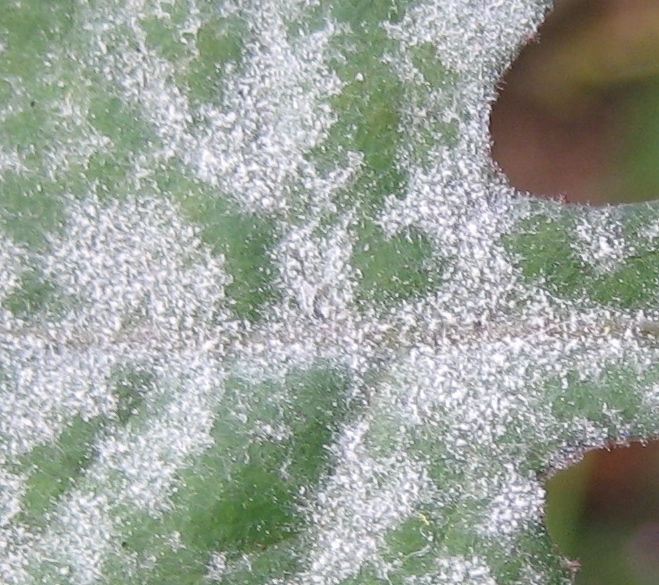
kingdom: Fungi
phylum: Ascomycota
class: Leotiomycetes
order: Helotiales
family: Erysiphaceae
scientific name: Erysiphaceae
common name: meldugfamilien
